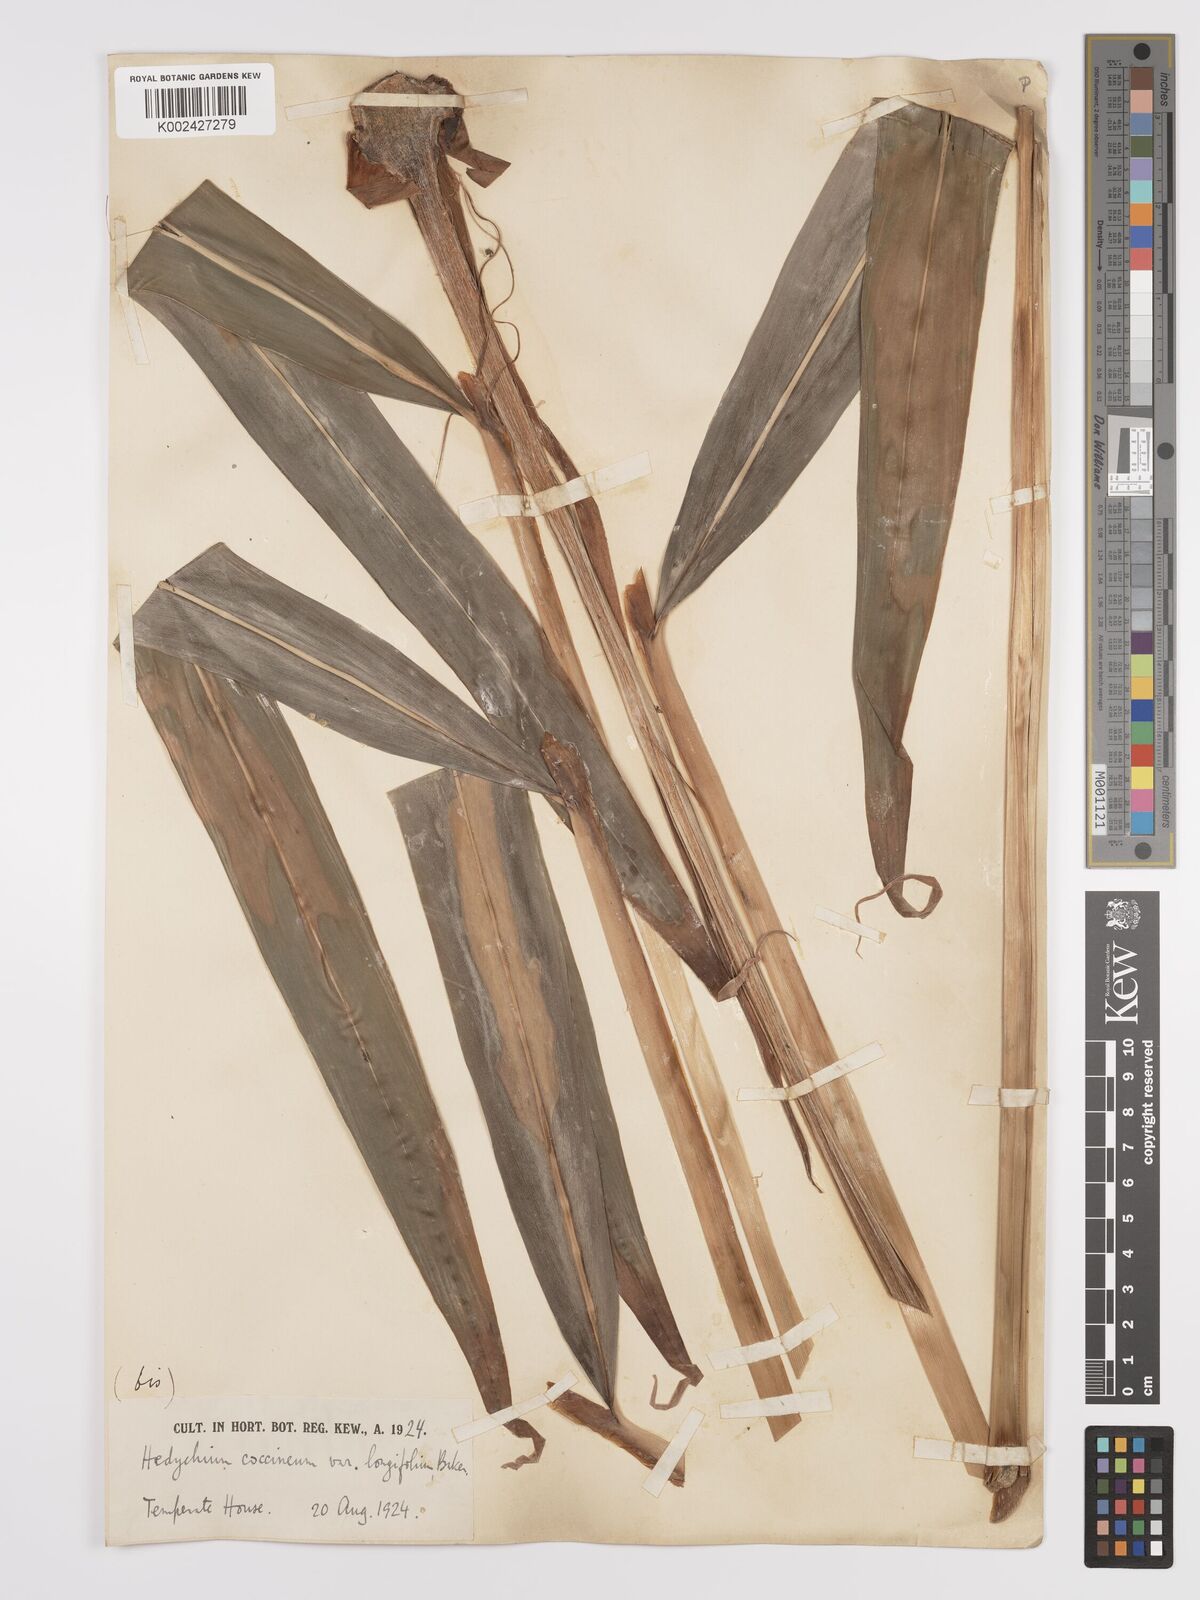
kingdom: Plantae
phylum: Tracheophyta
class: Liliopsida
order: Zingiberales
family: Zingiberaceae
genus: Hedychium
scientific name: Hedychium coccineum
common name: Red ginger-lily
